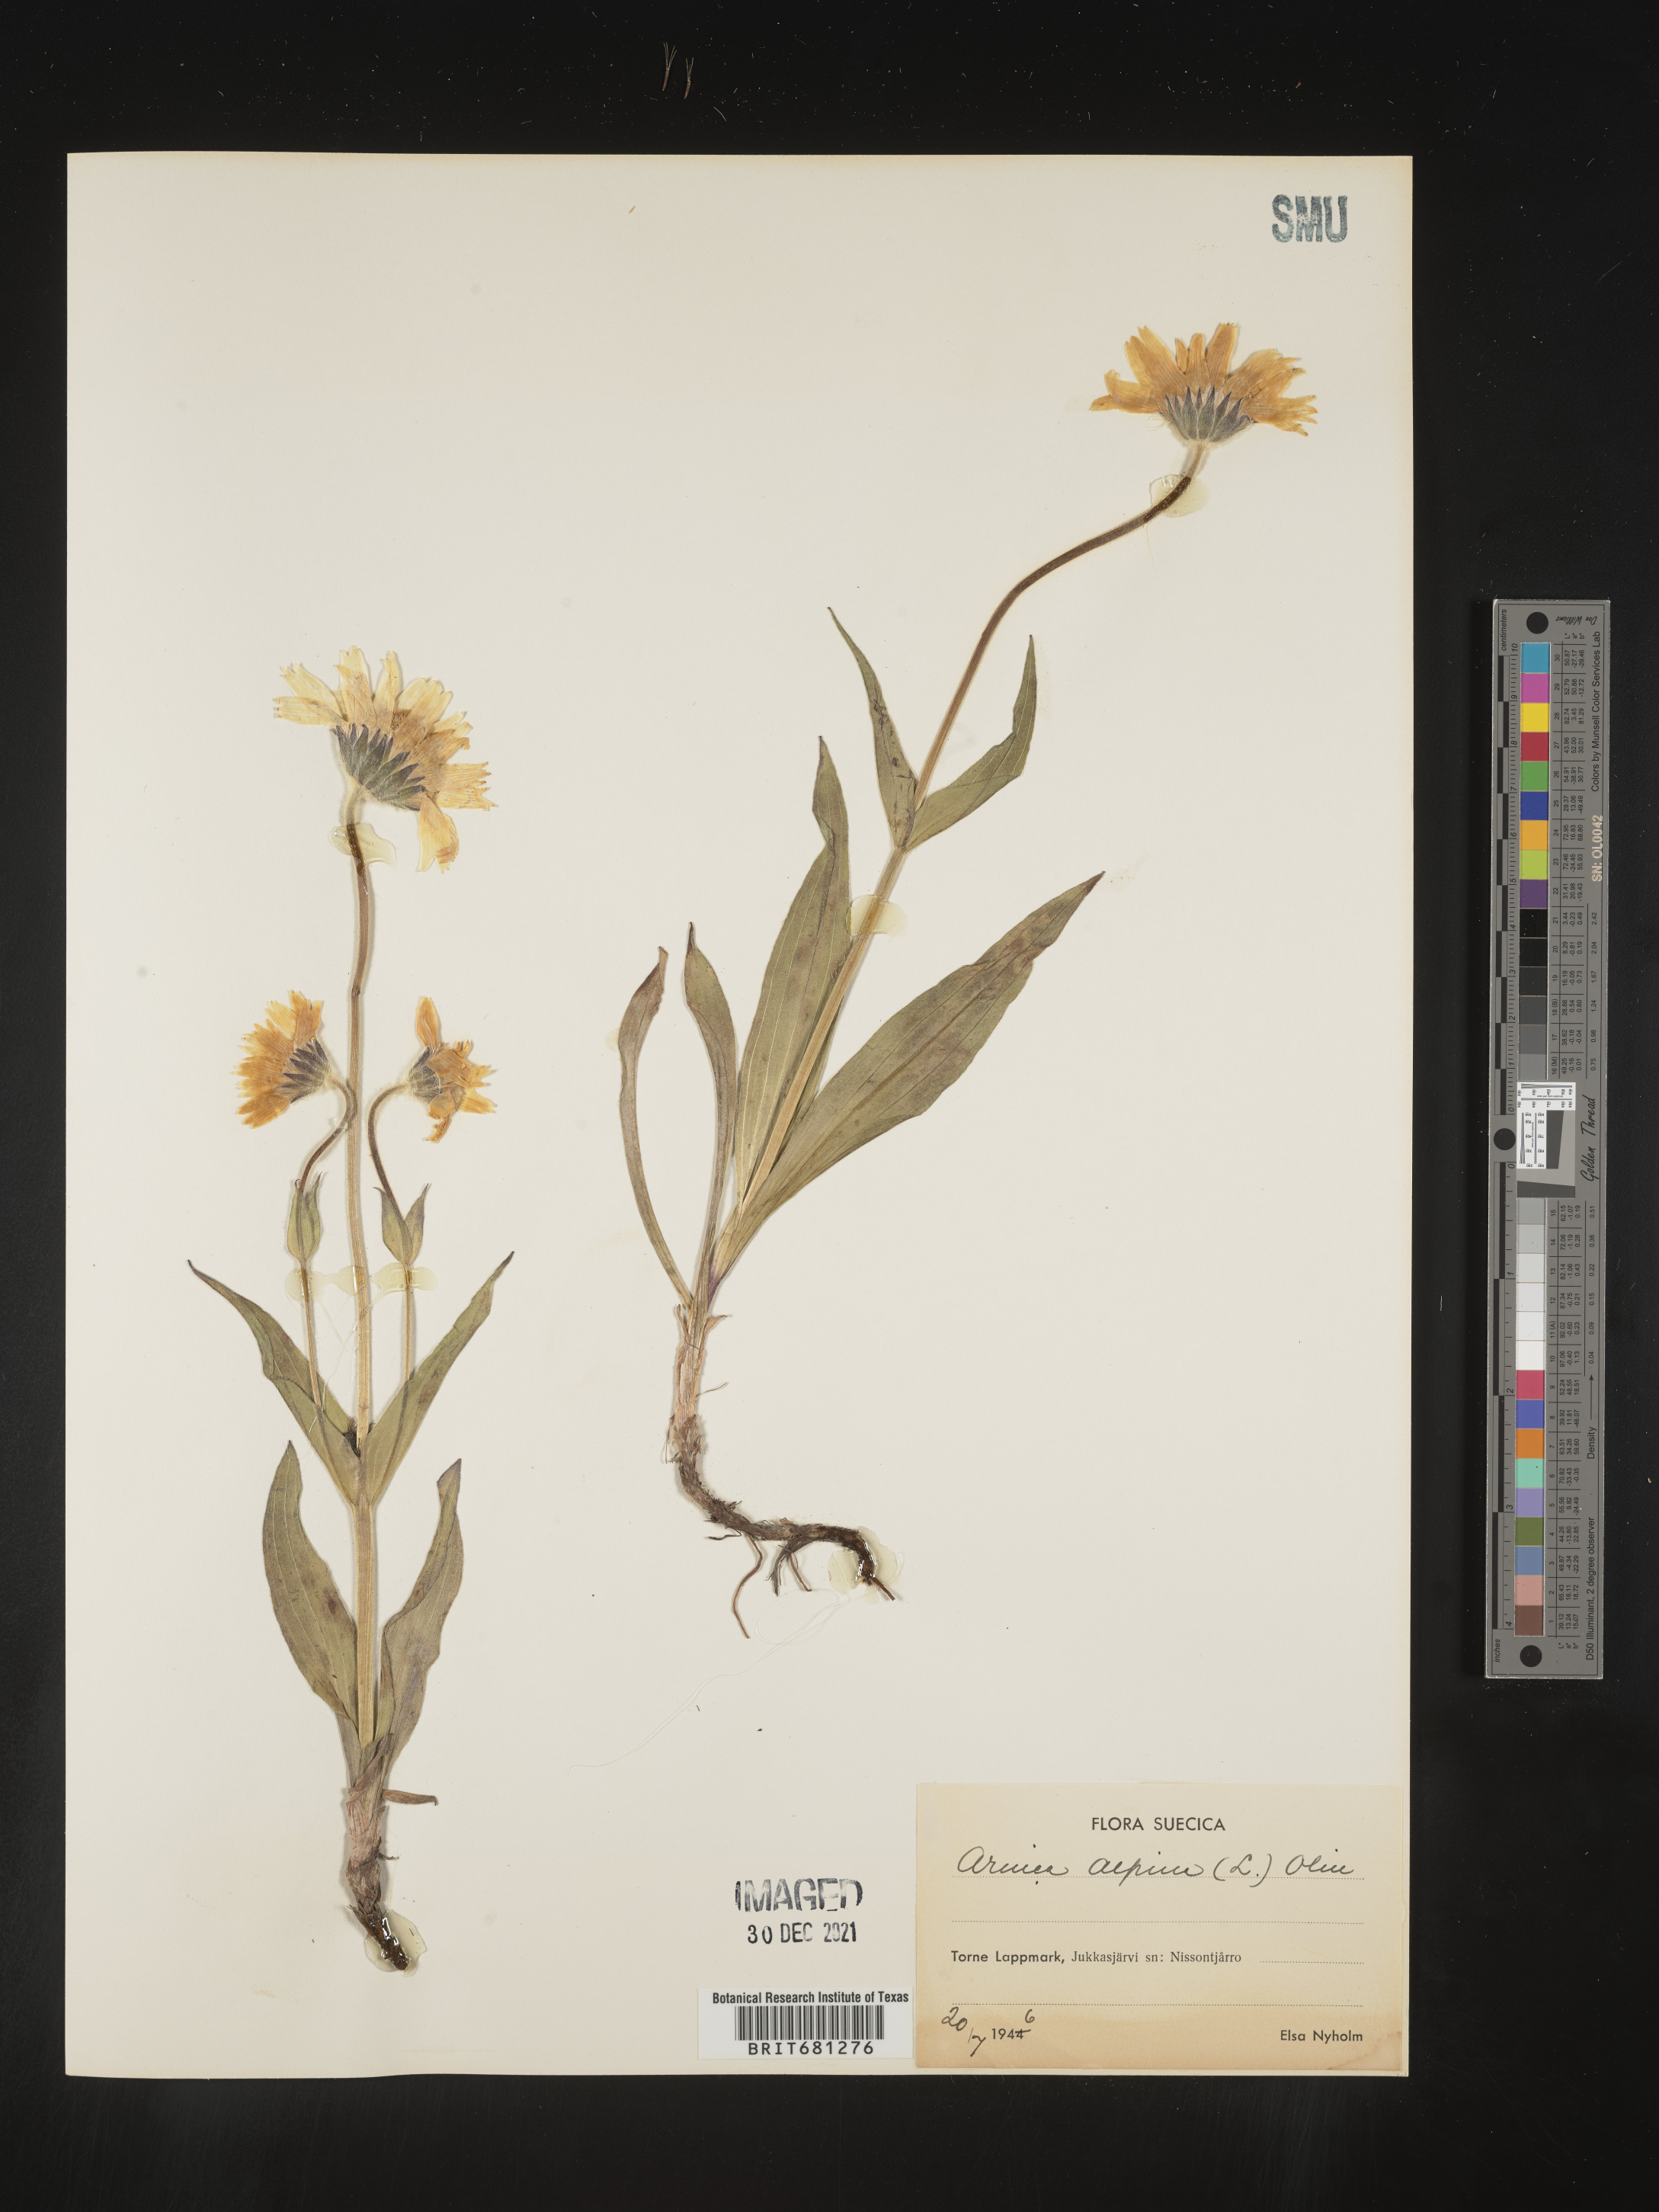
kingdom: Plantae
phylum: Tracheophyta
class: Magnoliopsida
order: Asterales
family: Asteraceae
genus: Arnica
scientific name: Arnica
